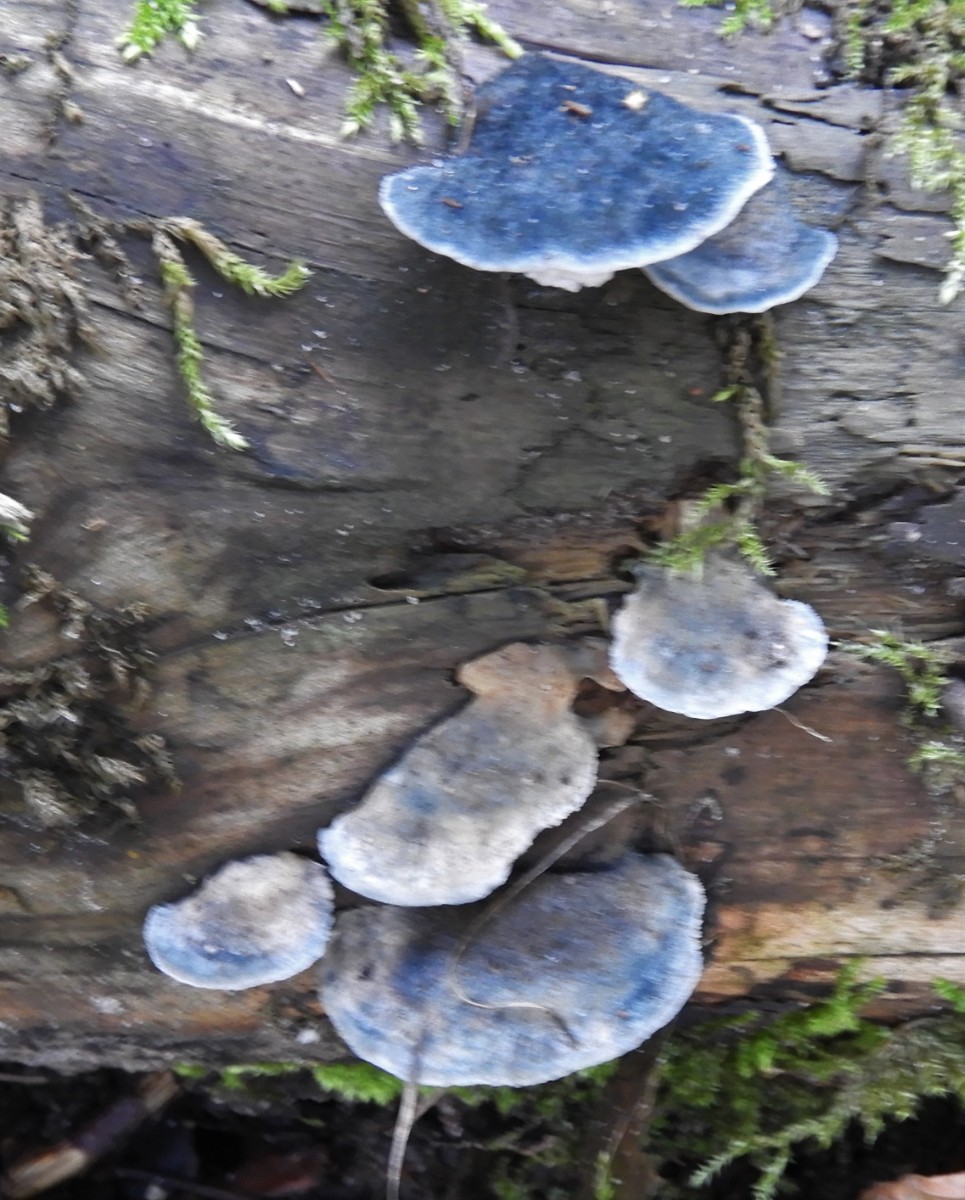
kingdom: Fungi
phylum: Basidiomycota
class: Agaricomycetes
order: Polyporales
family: Polyporaceae
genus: Cyanosporus
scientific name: Cyanosporus caesius
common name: blålig kødporesvamp
